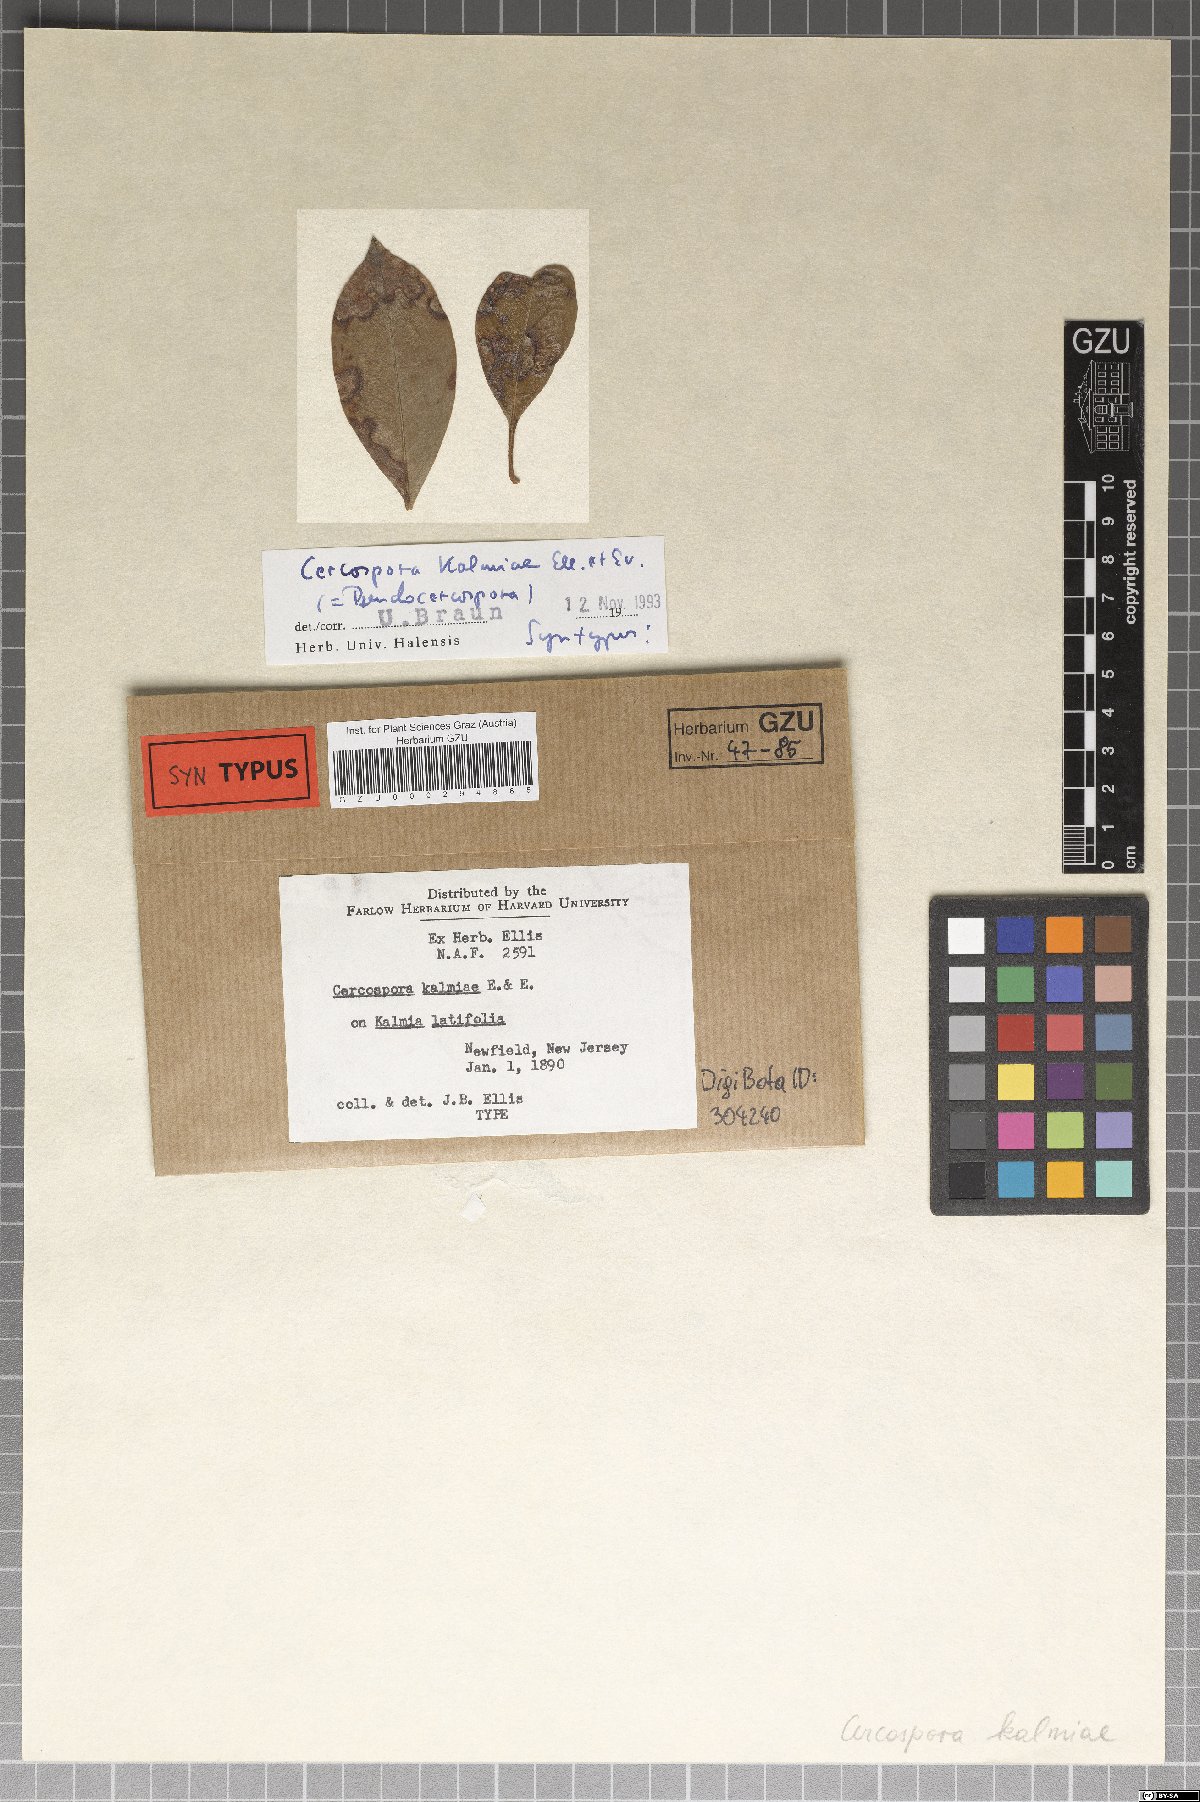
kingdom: Fungi
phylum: Ascomycota
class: Dothideomycetes
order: Mycosphaerellales
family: Mycosphaerellaceae
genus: Pseudocercospora
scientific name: Pseudocercospora kalmiae
